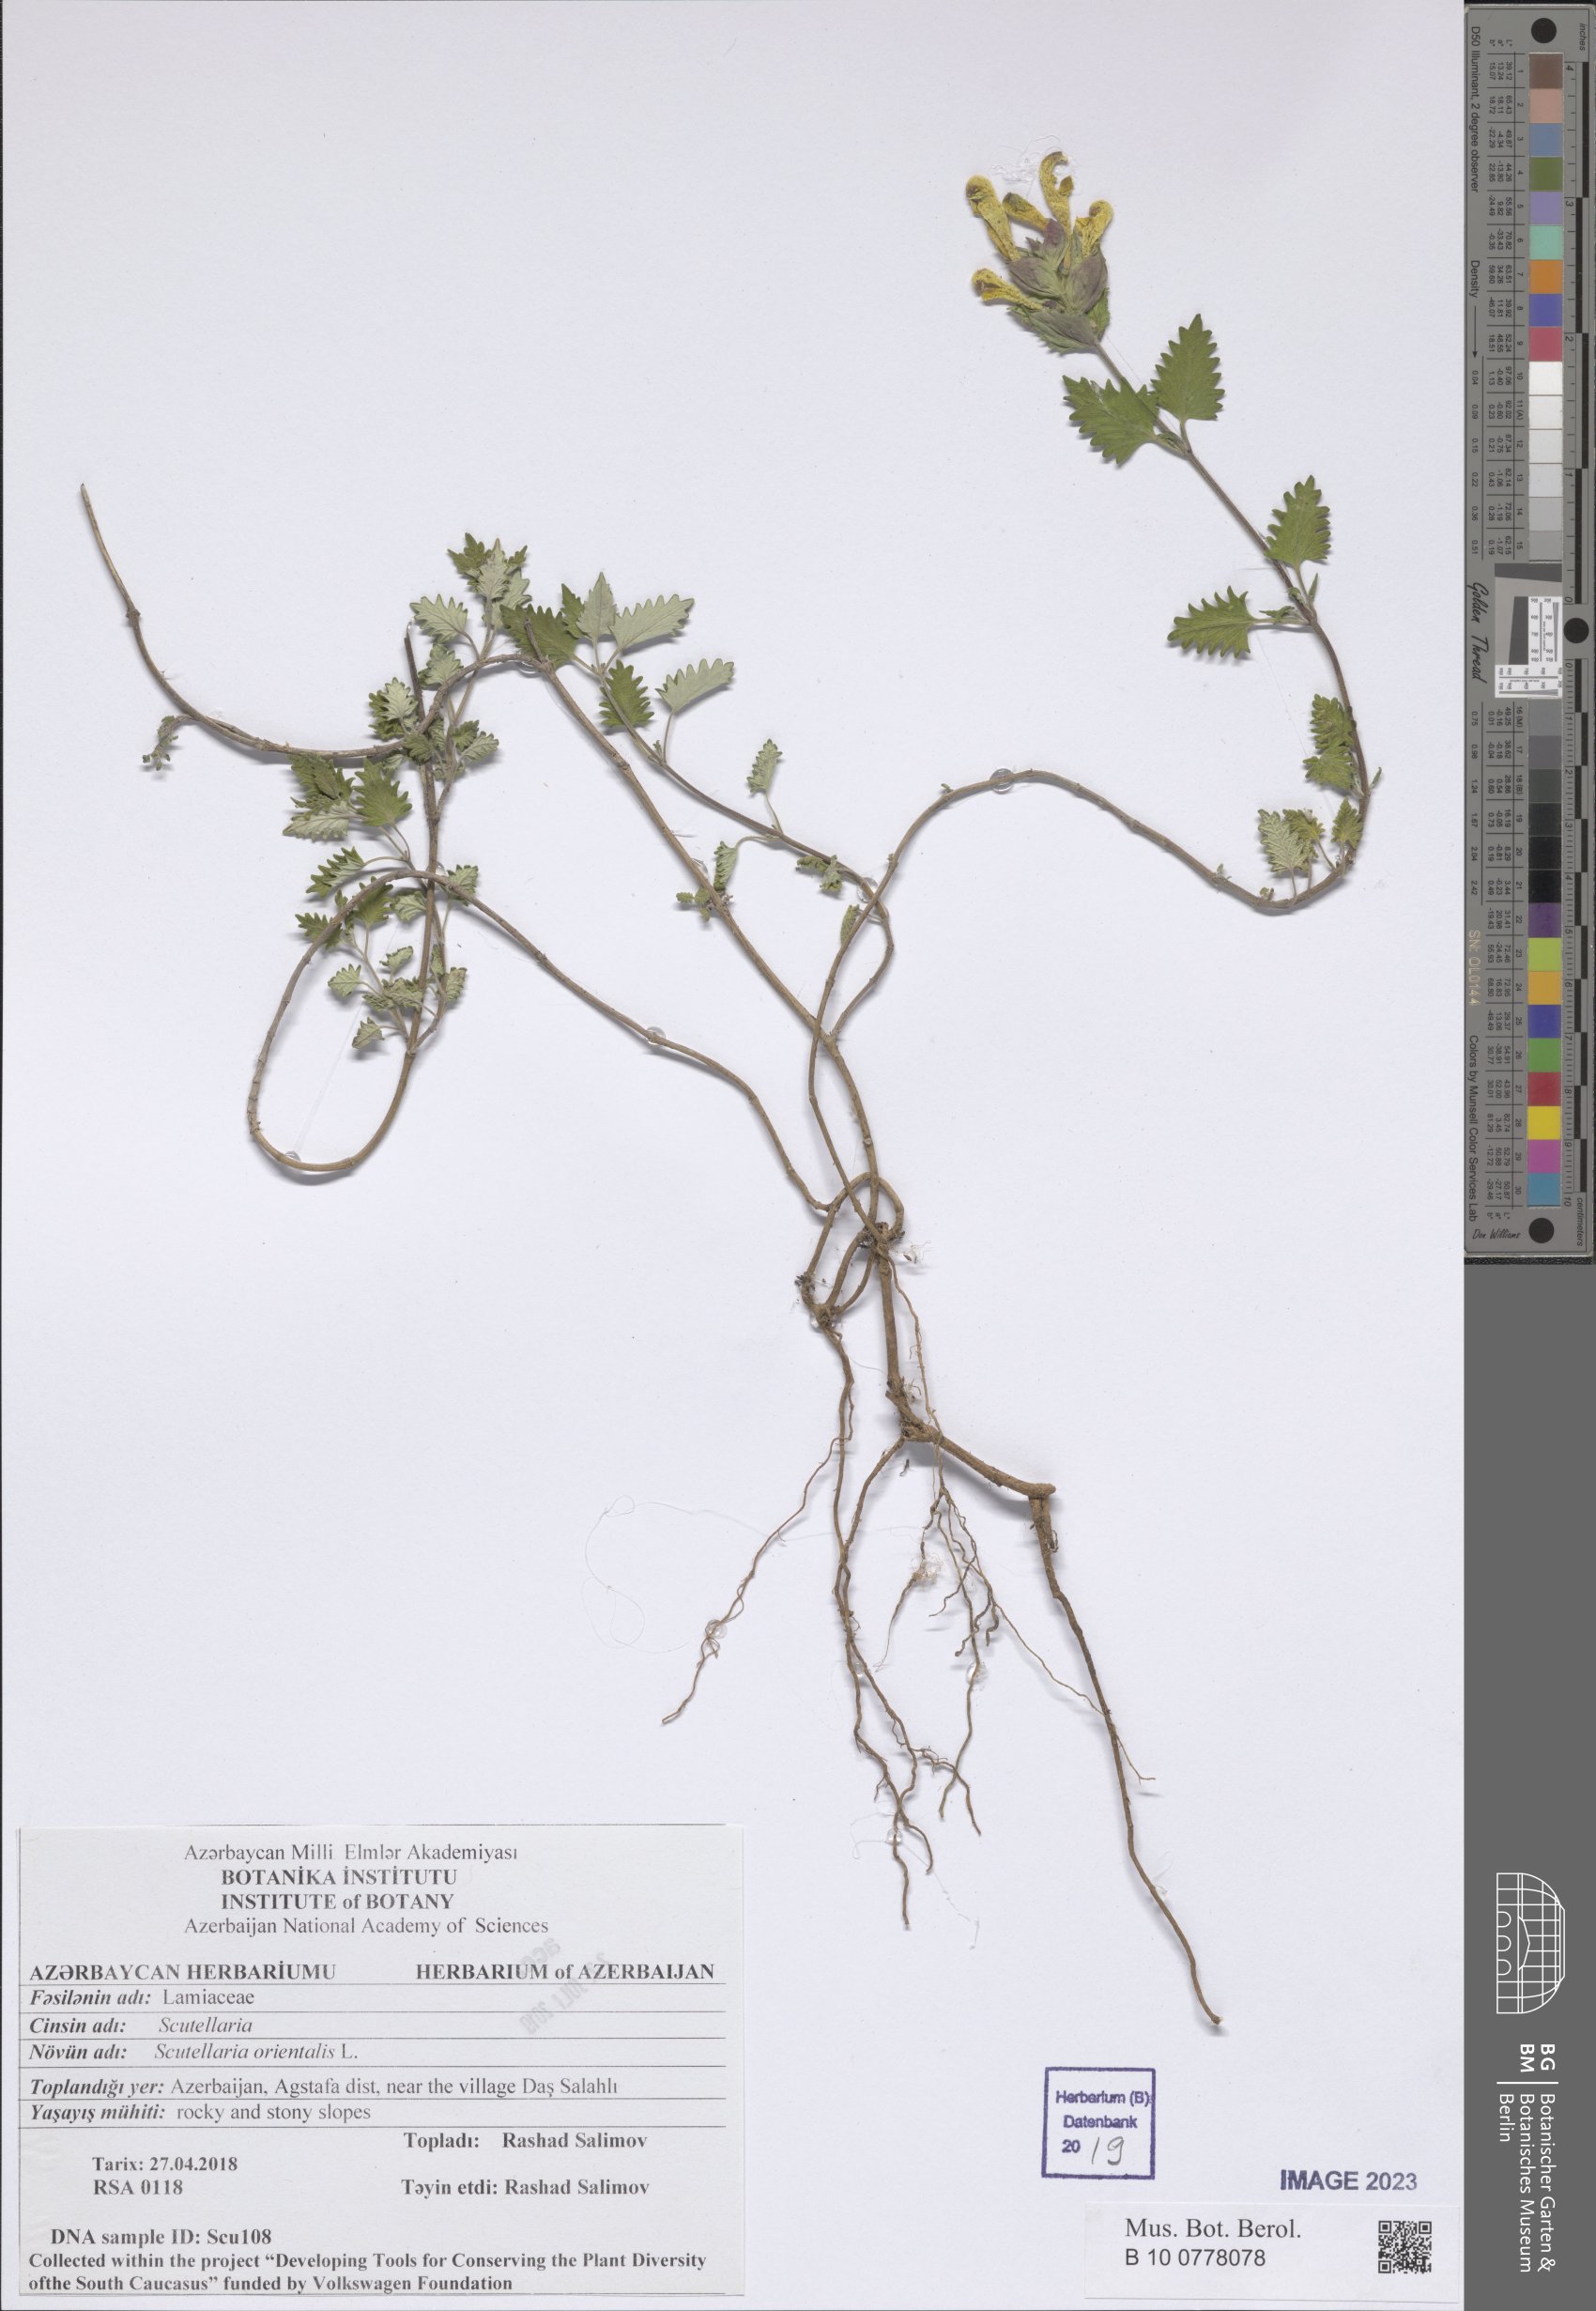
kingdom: Plantae
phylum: Tracheophyta
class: Magnoliopsida
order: Lamiales
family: Lamiaceae
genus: Scutellaria
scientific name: Scutellaria orientalis
